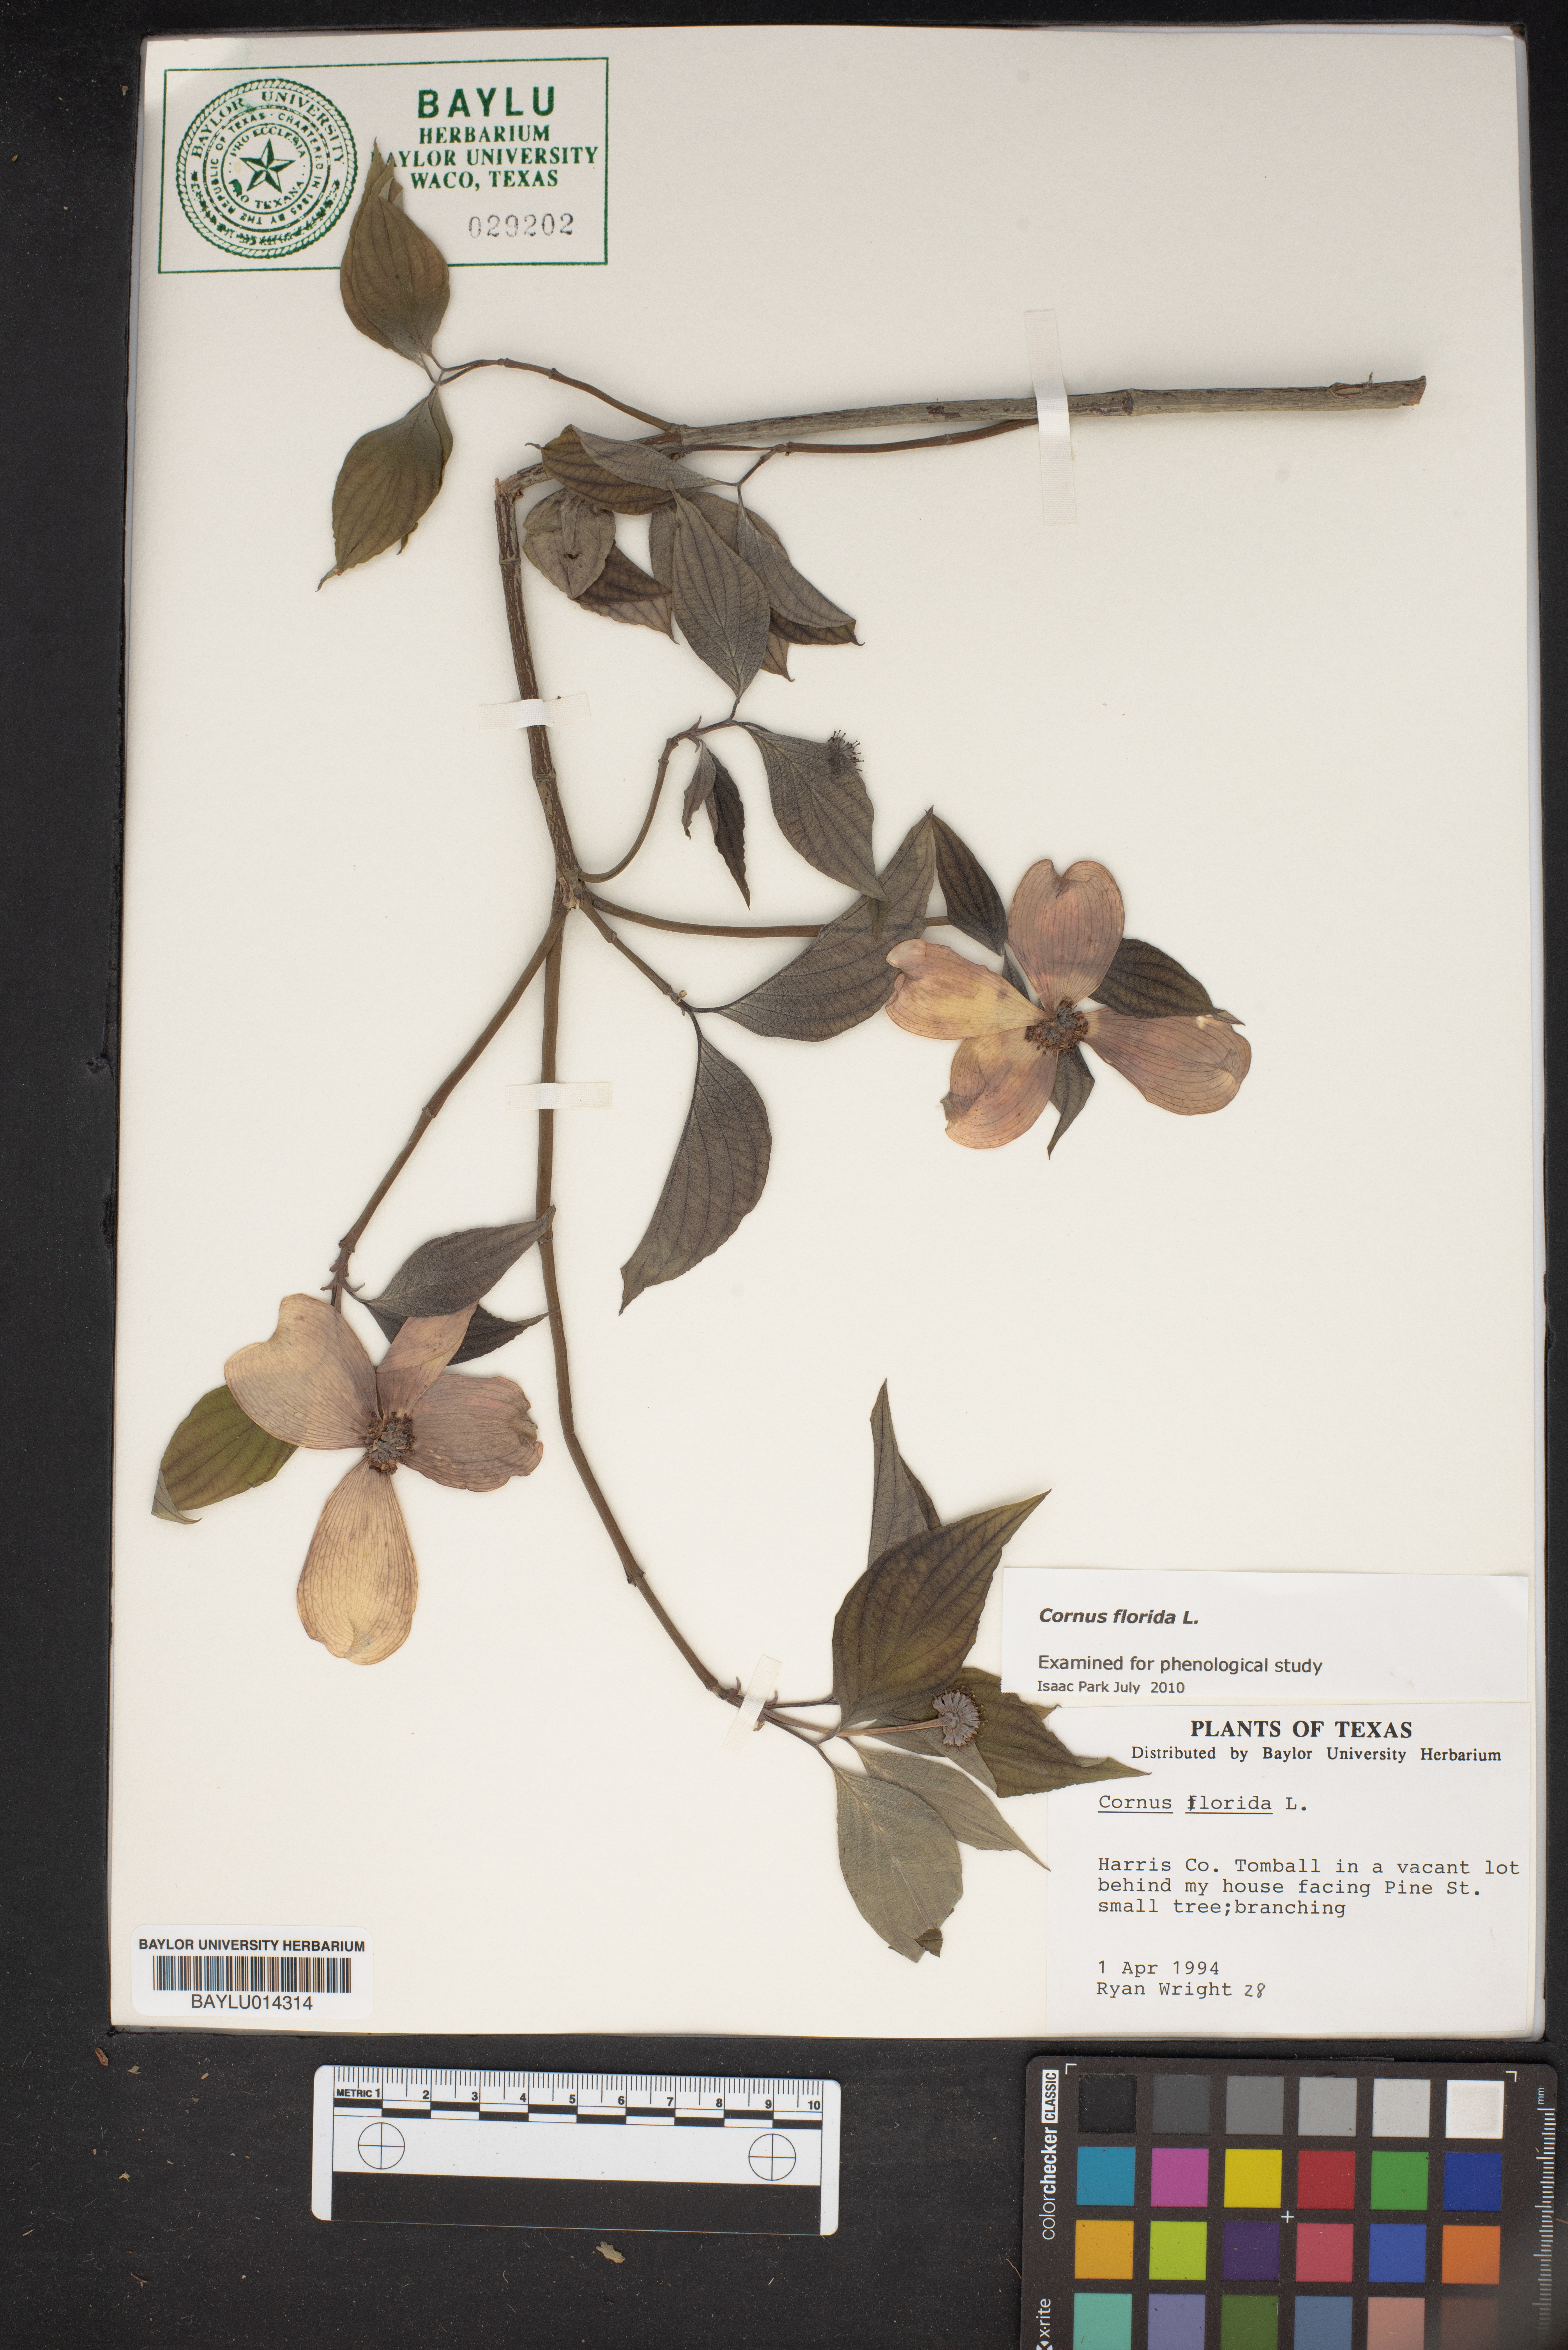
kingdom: Plantae
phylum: Tracheophyta
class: Magnoliopsida
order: Cornales
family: Cornaceae
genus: Cornus
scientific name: Cornus florida
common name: Flowering dogwood
